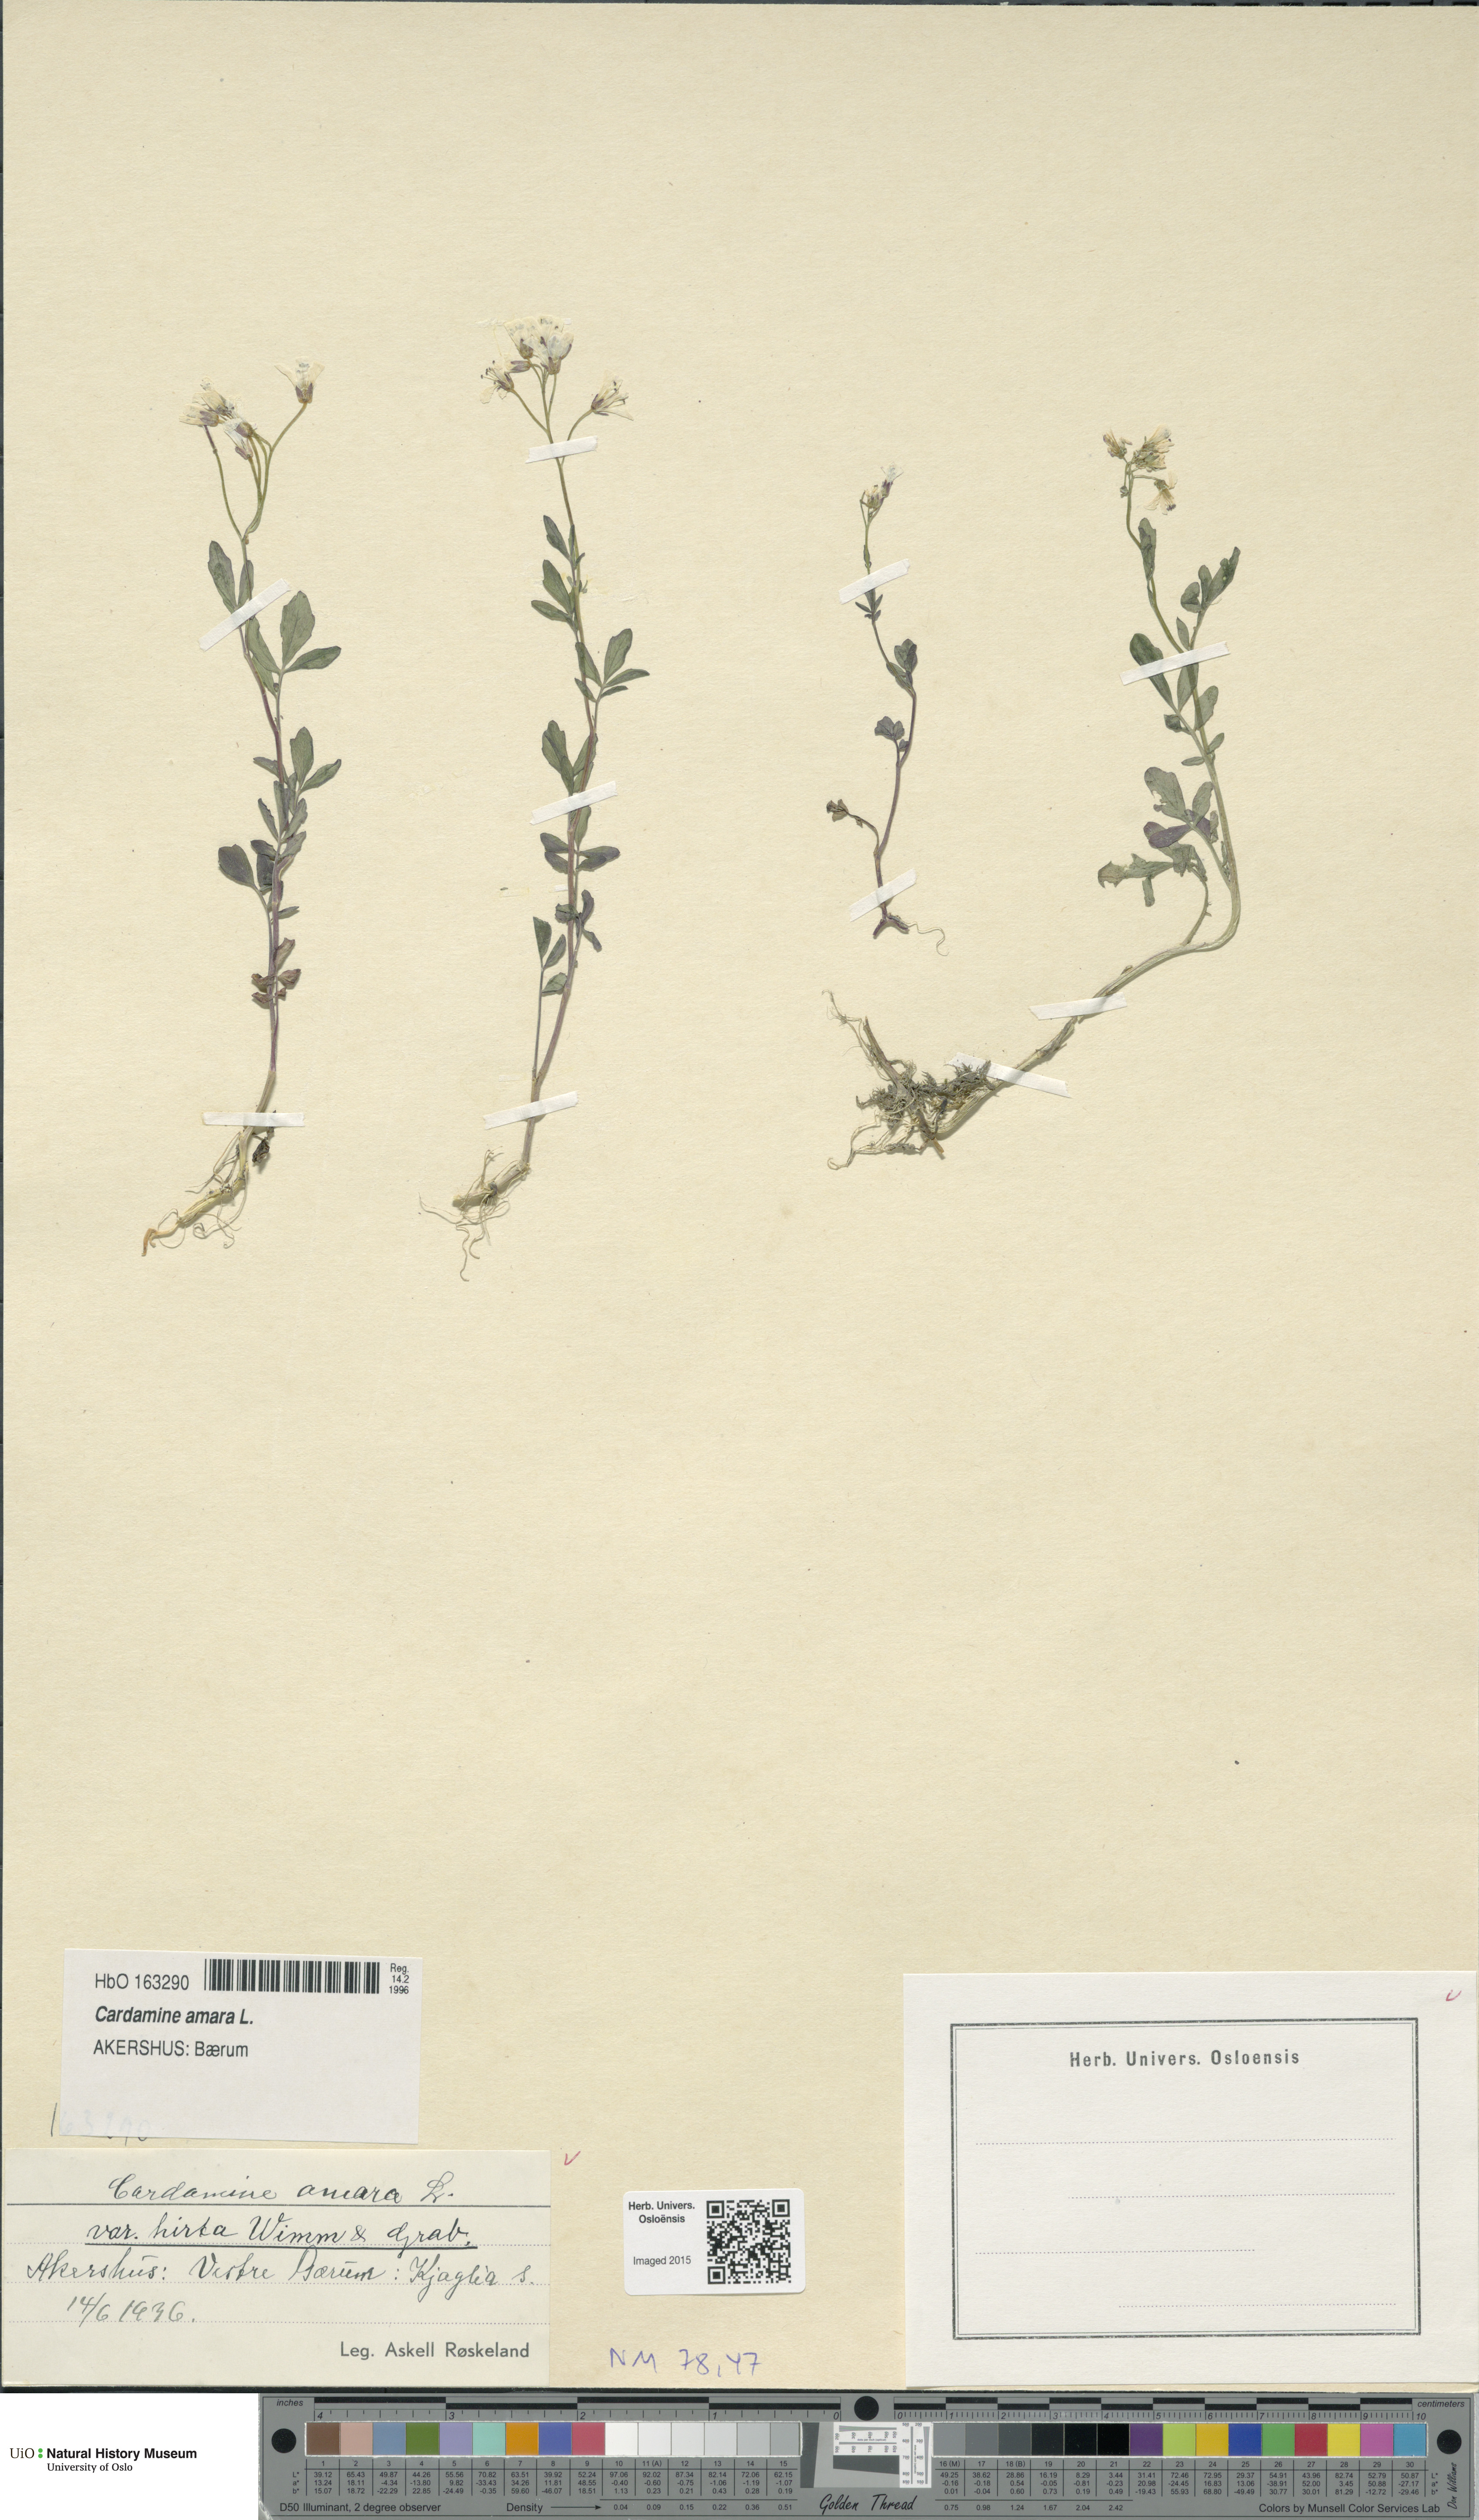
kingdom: Plantae
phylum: Tracheophyta
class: Magnoliopsida
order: Brassicales
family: Brassicaceae
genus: Cardamine
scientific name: Cardamine amara
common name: Large bitter-cress
